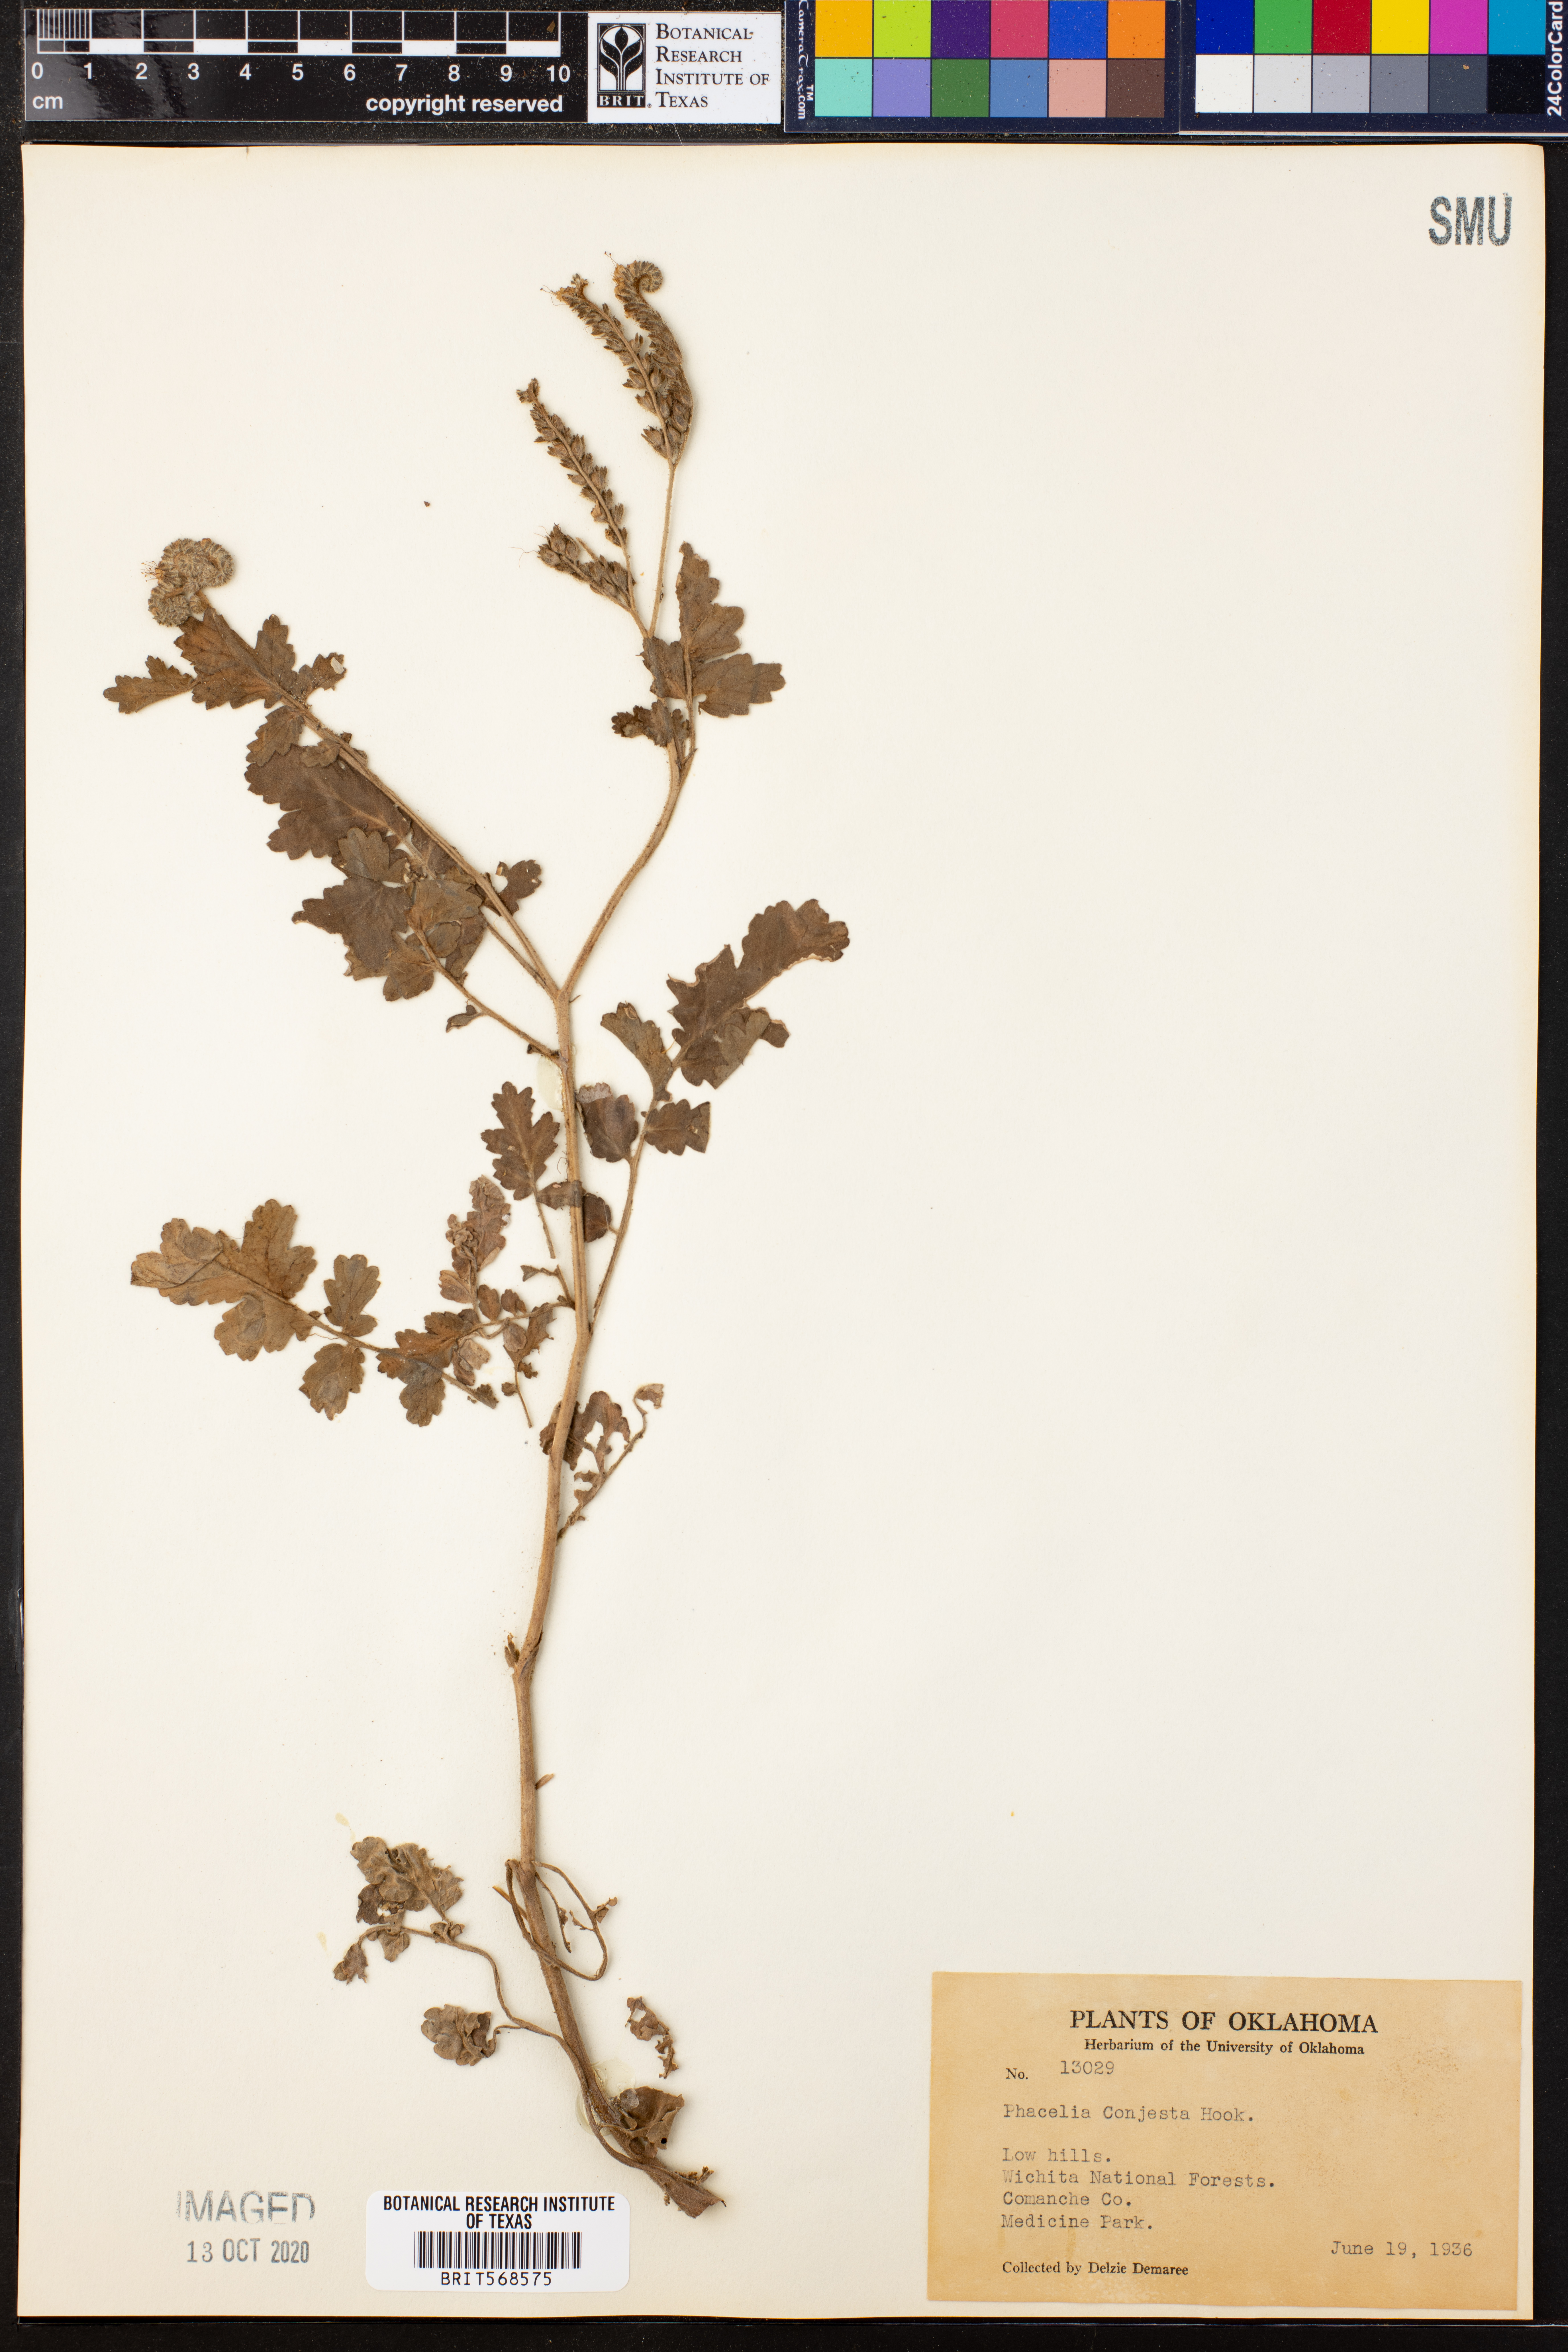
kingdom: Plantae
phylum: Tracheophyta
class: Magnoliopsida
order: Boraginales
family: Hydrophyllaceae
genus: Phacelia
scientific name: Phacelia congesta
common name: Blue curls
